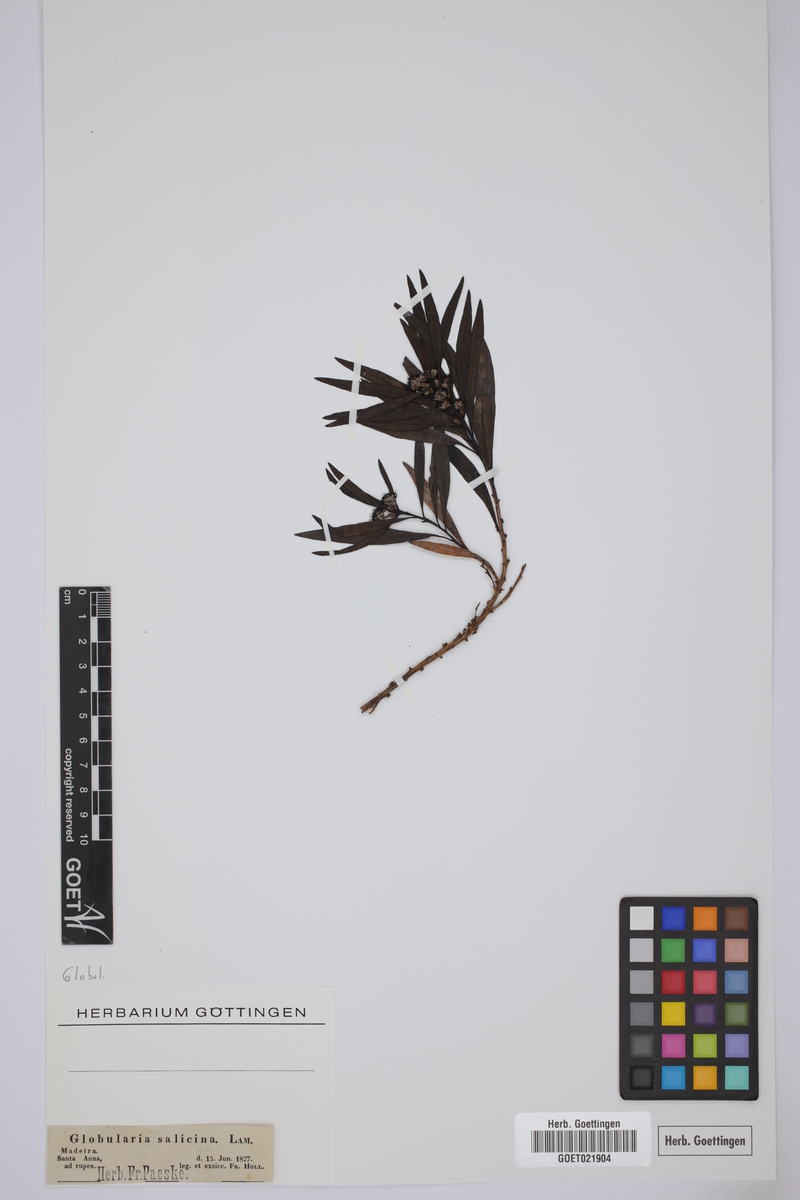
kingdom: Plantae
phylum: Tracheophyta
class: Magnoliopsida
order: Lamiales
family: Plantaginaceae
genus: Globularia
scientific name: Globularia salicina
